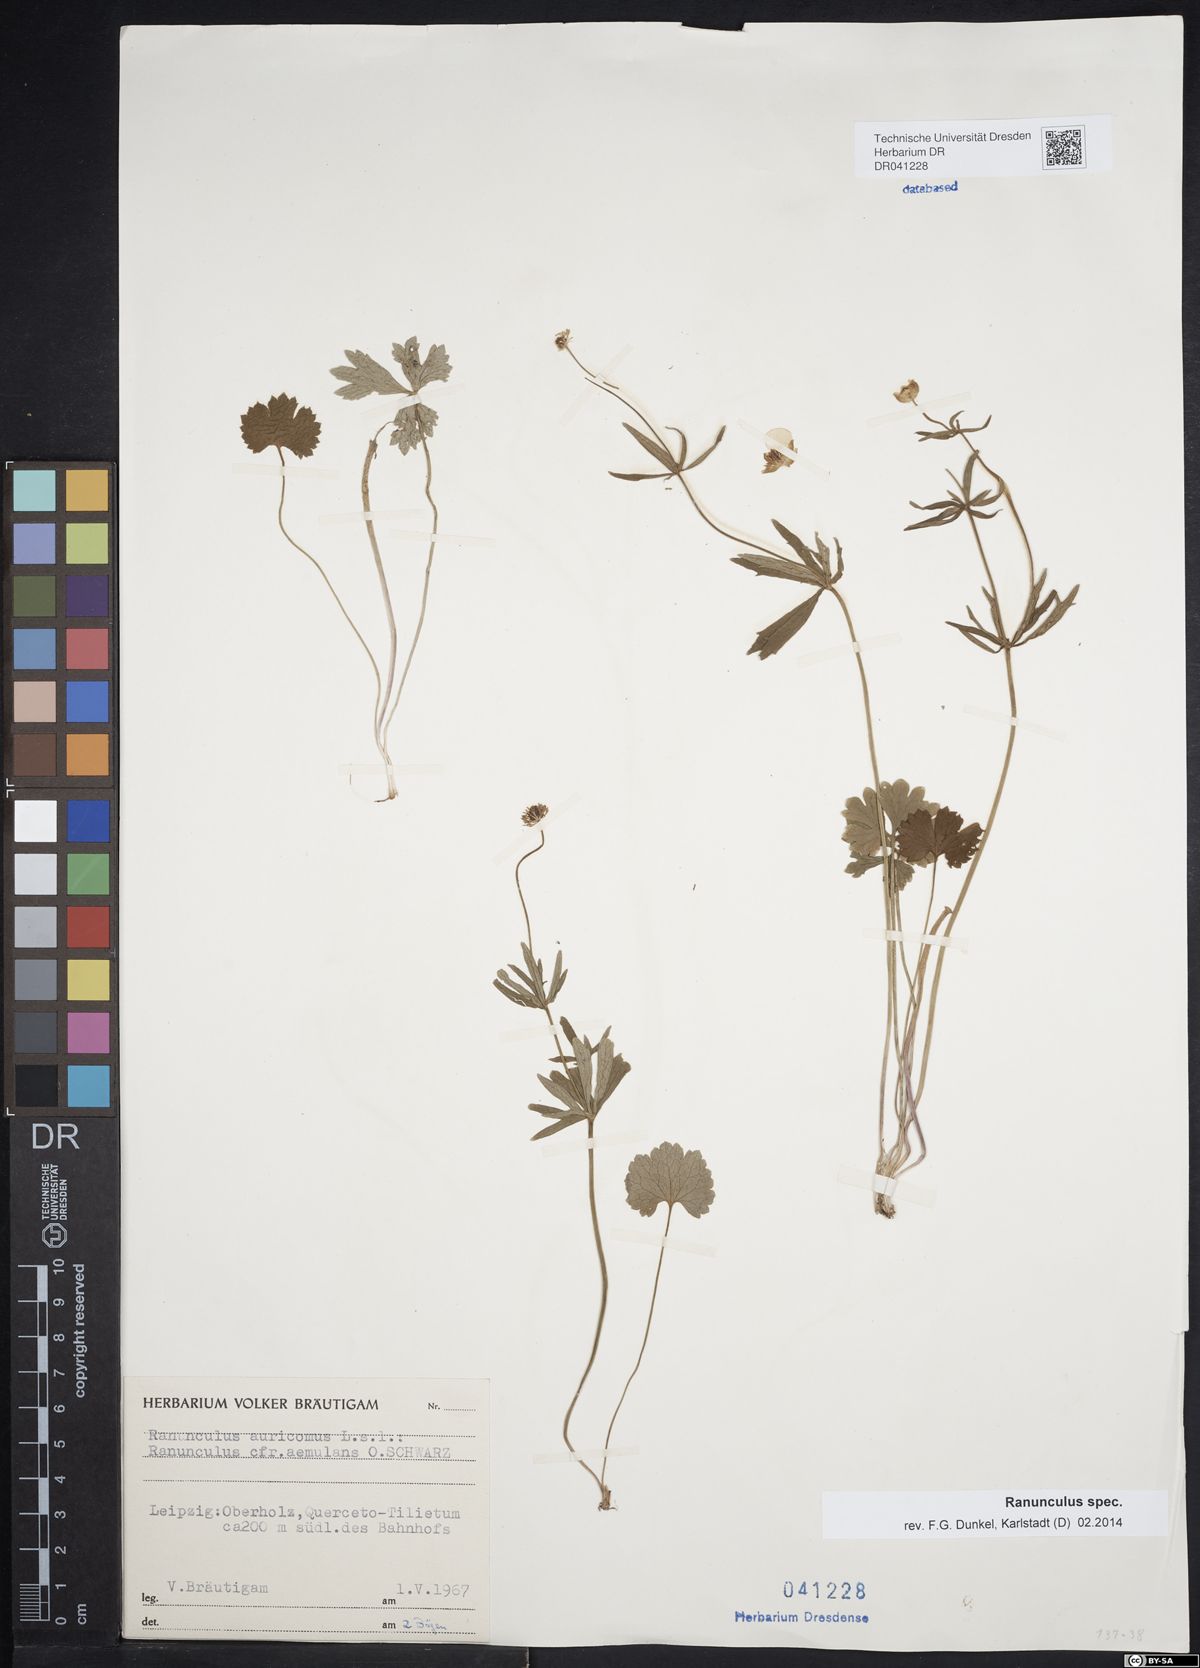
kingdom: Plantae
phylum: Tracheophyta
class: Magnoliopsida
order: Ranunculales
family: Ranunculaceae
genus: Ranunculus
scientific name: Ranunculus auricomus
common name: Goldilocks buttercup
